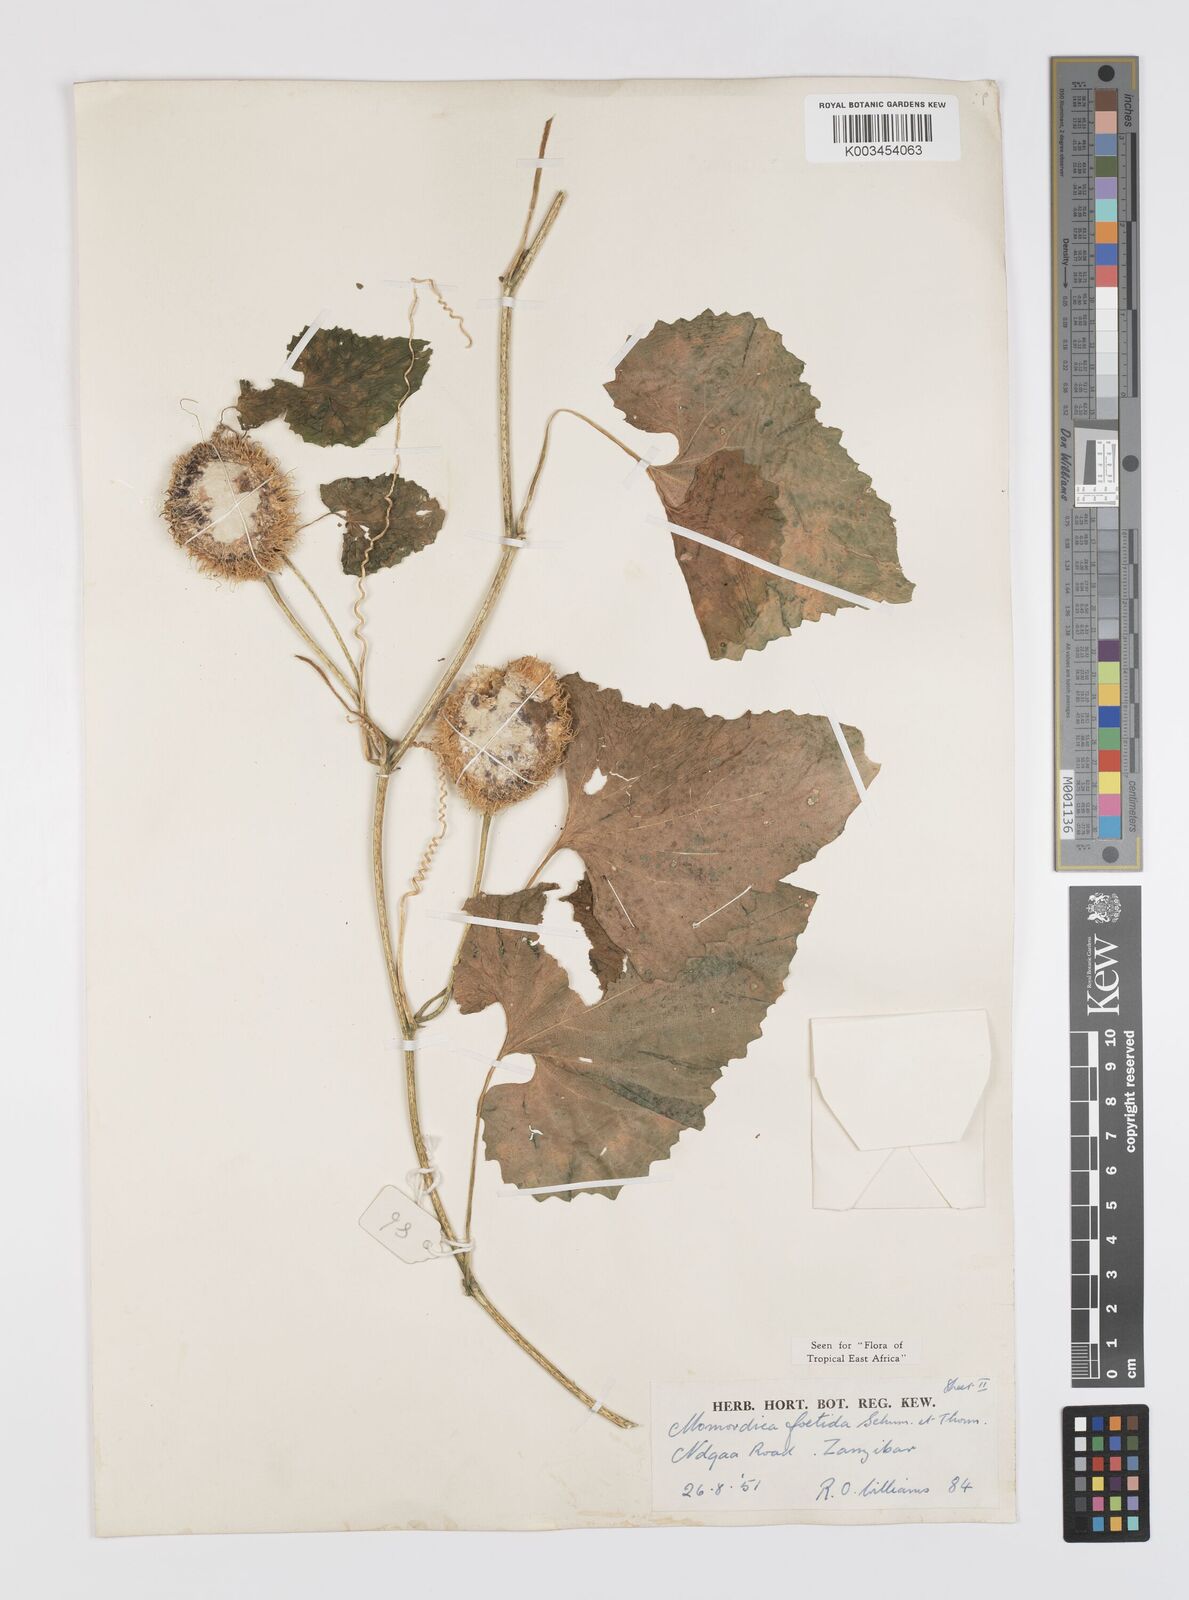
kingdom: Plantae
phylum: Tracheophyta
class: Magnoliopsida
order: Cucurbitales
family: Cucurbitaceae
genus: Momordica
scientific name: Momordica foetida
